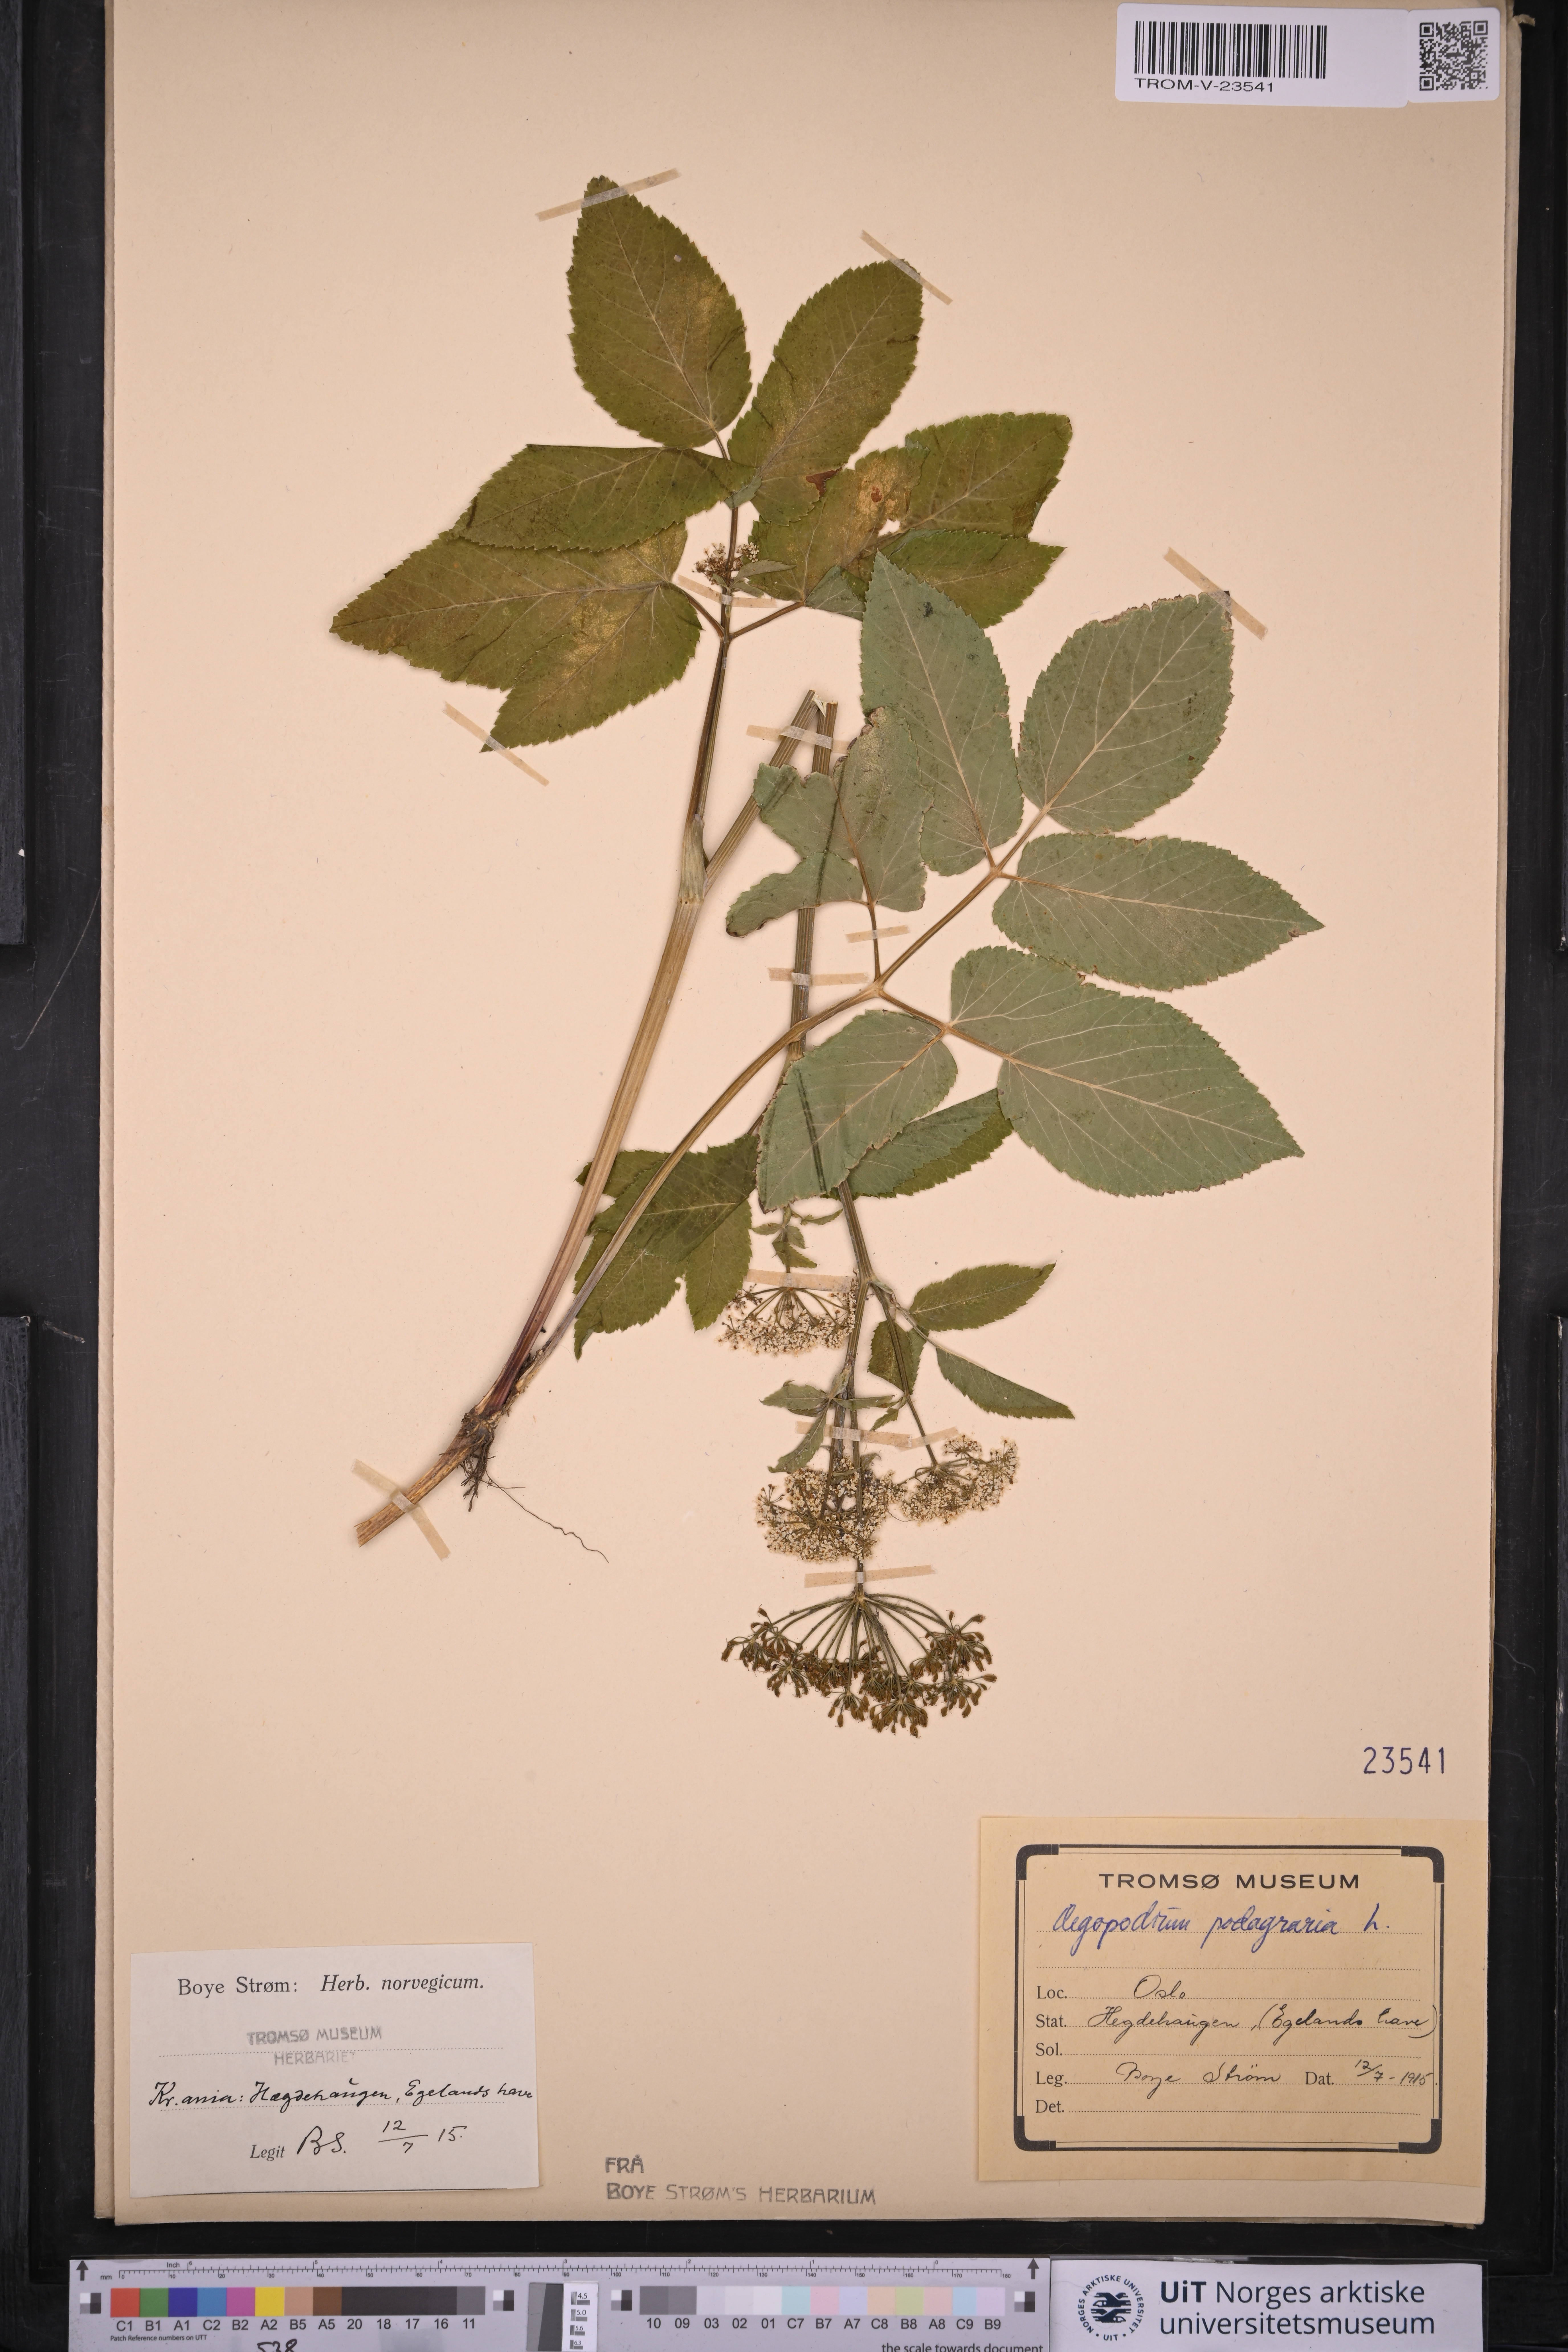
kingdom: Plantae
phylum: Tracheophyta
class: Magnoliopsida
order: Apiales
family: Apiaceae
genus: Aegopodium
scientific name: Aegopodium podagraria
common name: Ground-elder
